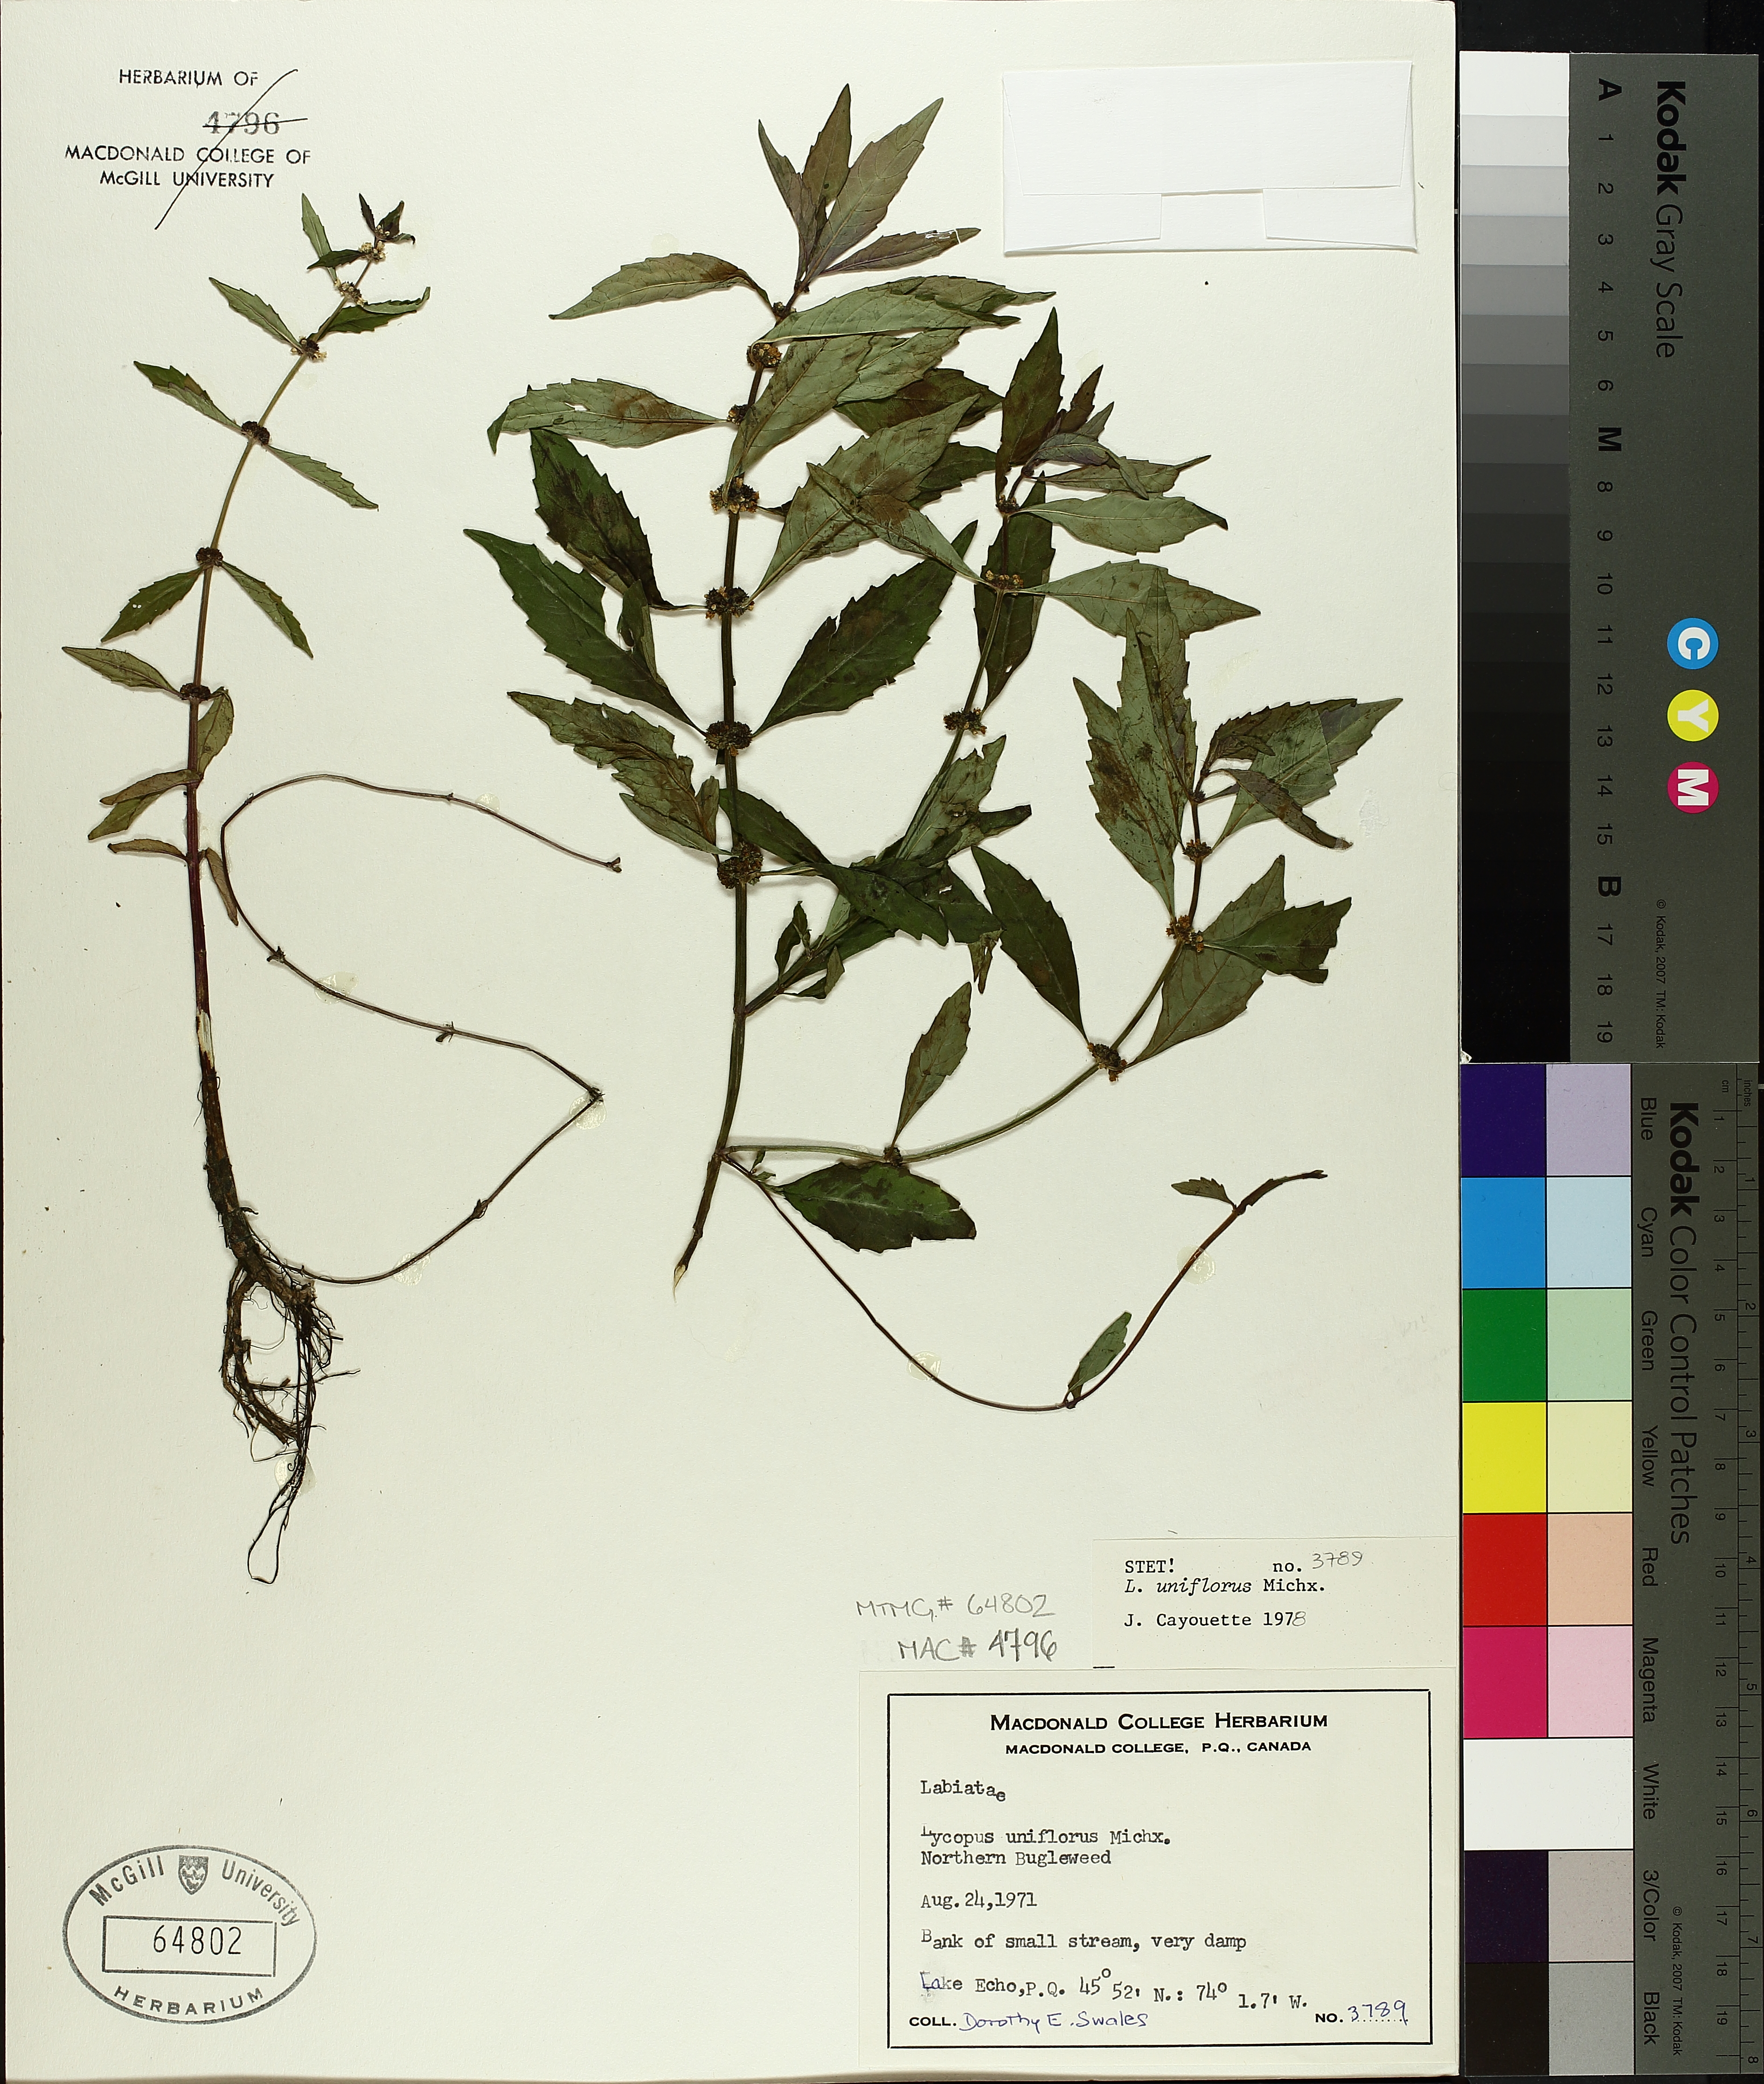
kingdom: Plantae
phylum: Tracheophyta
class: Magnoliopsida
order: Lamiales
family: Lamiaceae
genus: Lycopus
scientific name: Lycopus uniflorus
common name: Northern bugleweed
